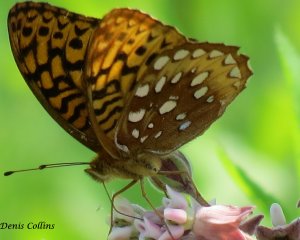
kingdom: Animalia
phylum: Arthropoda
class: Insecta
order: Lepidoptera
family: Nymphalidae
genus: Speyeria
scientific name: Speyeria cybele
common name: Great Spangled Fritillary
